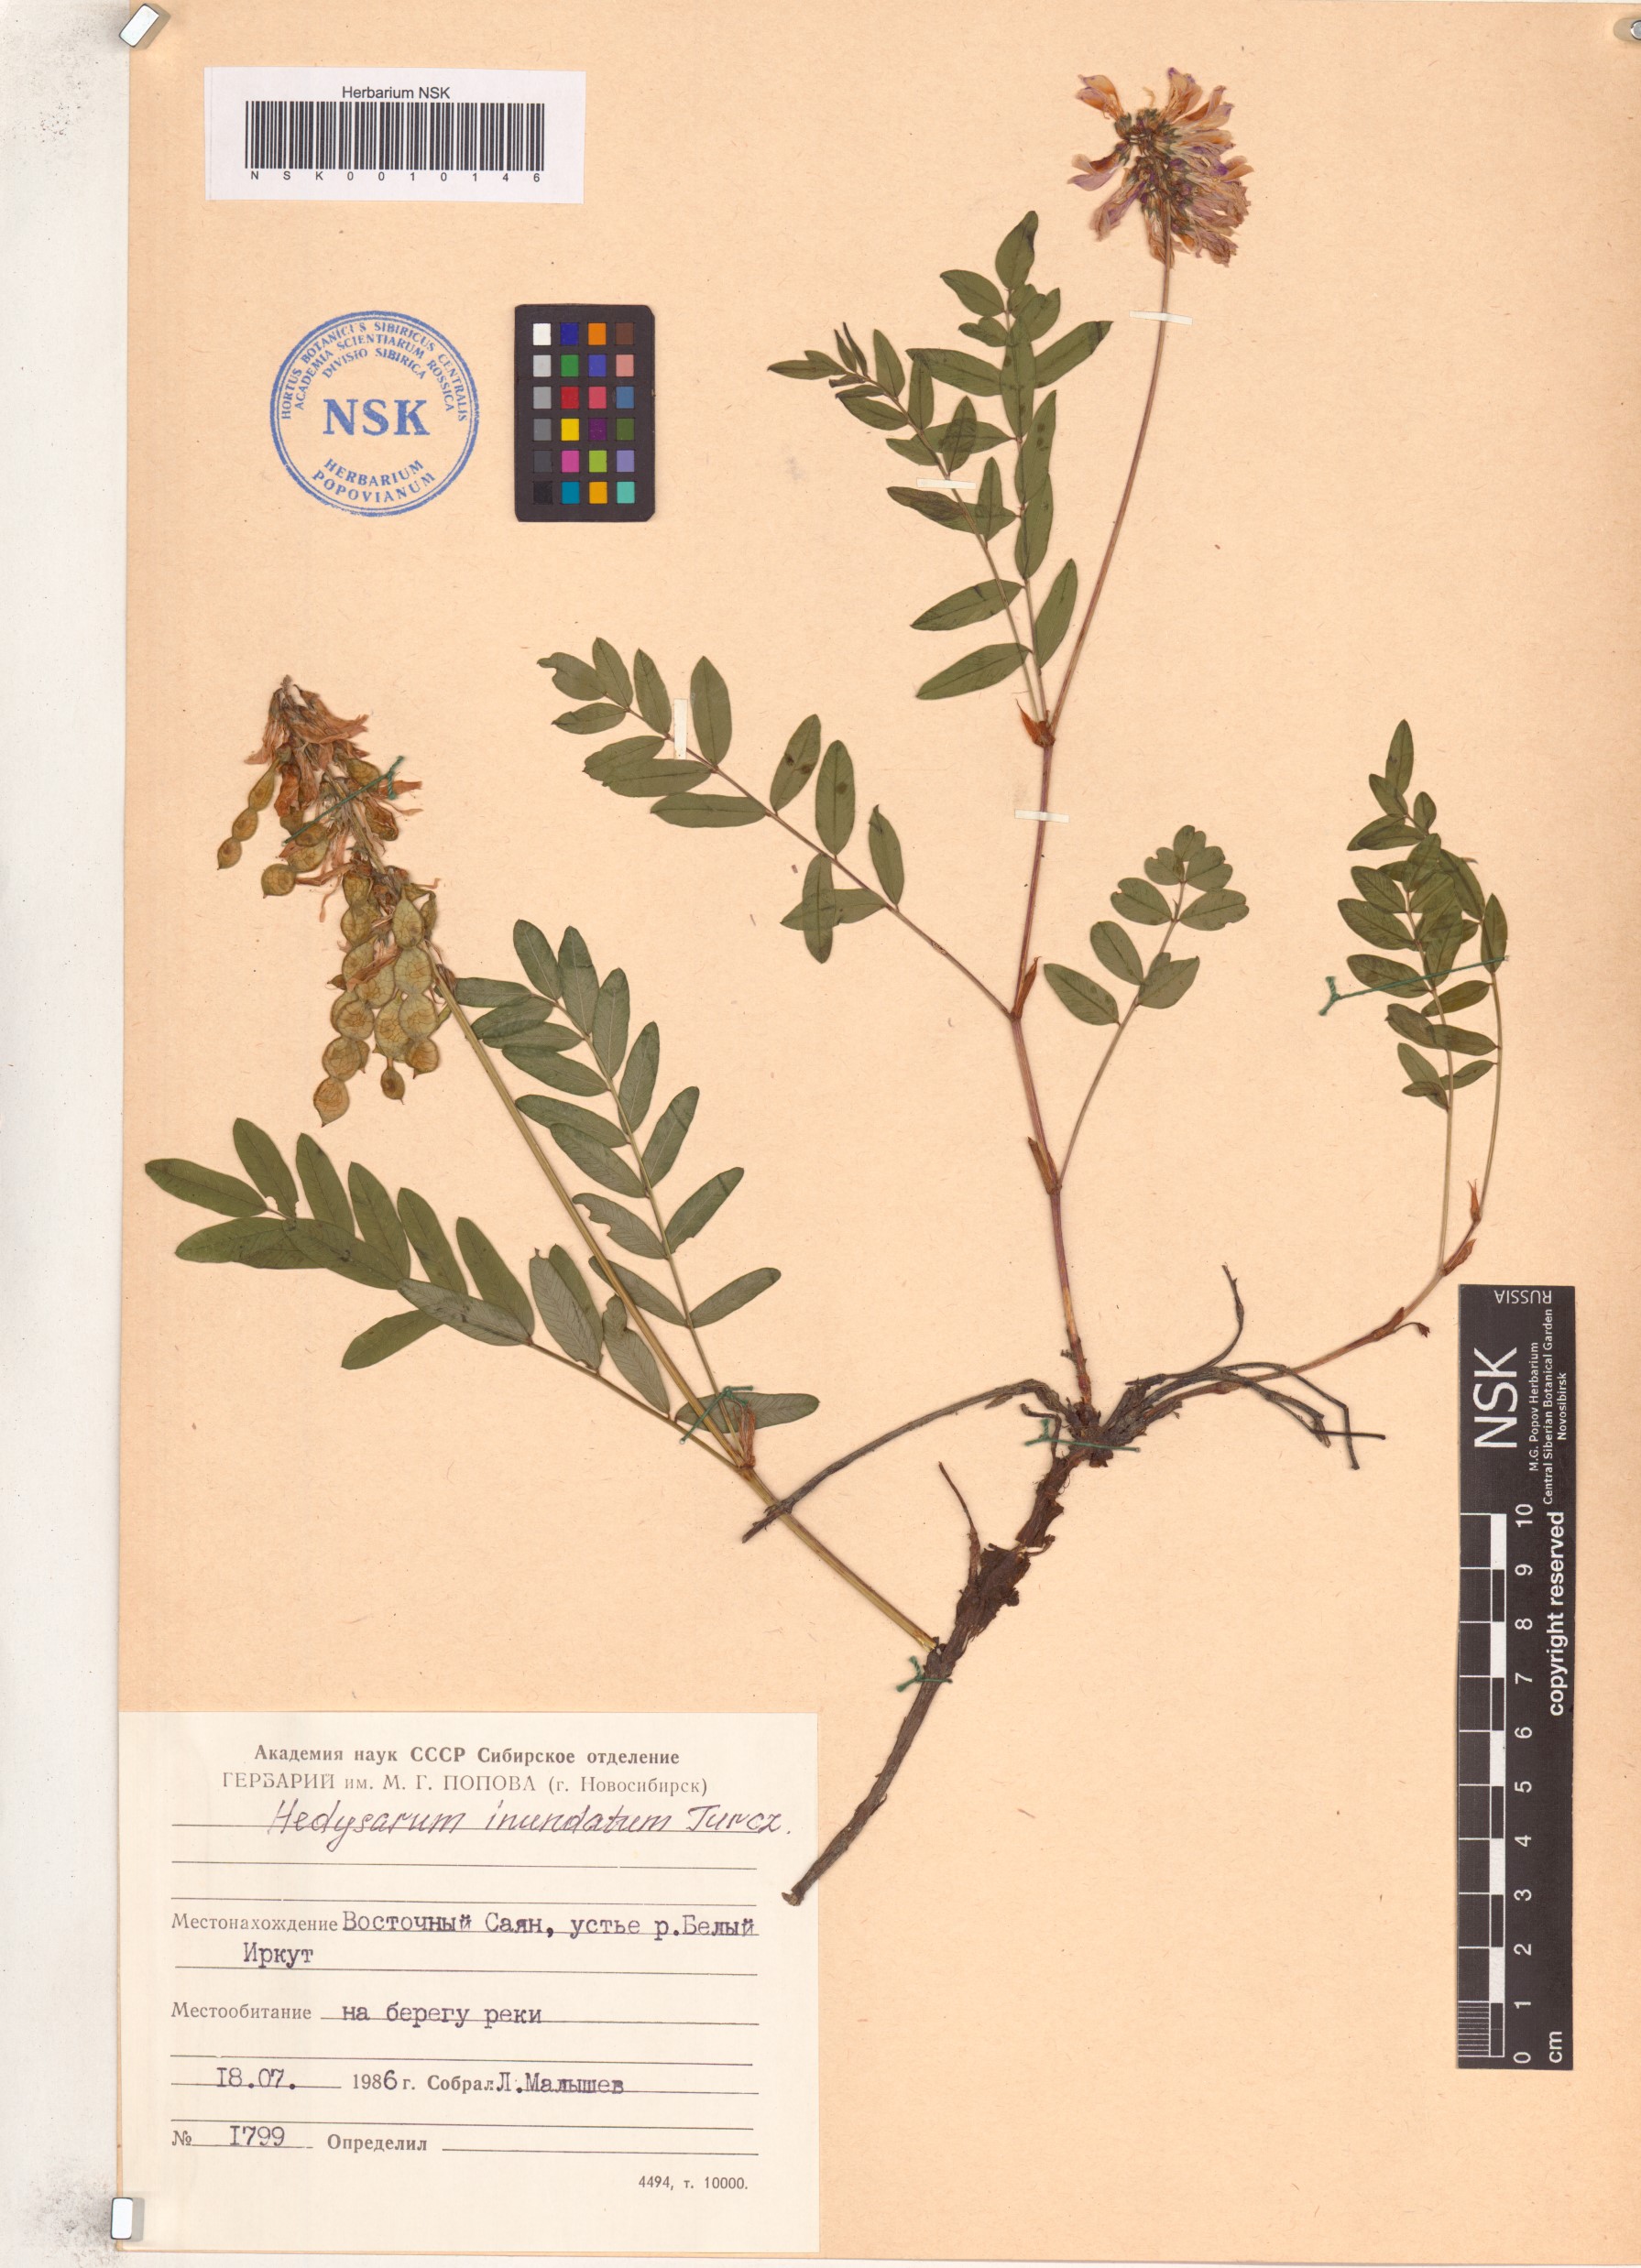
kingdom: Plantae
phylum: Tracheophyta
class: Magnoliopsida
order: Fabales
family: Fabaceae
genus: Hedysarum
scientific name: Hedysarum inundatum
